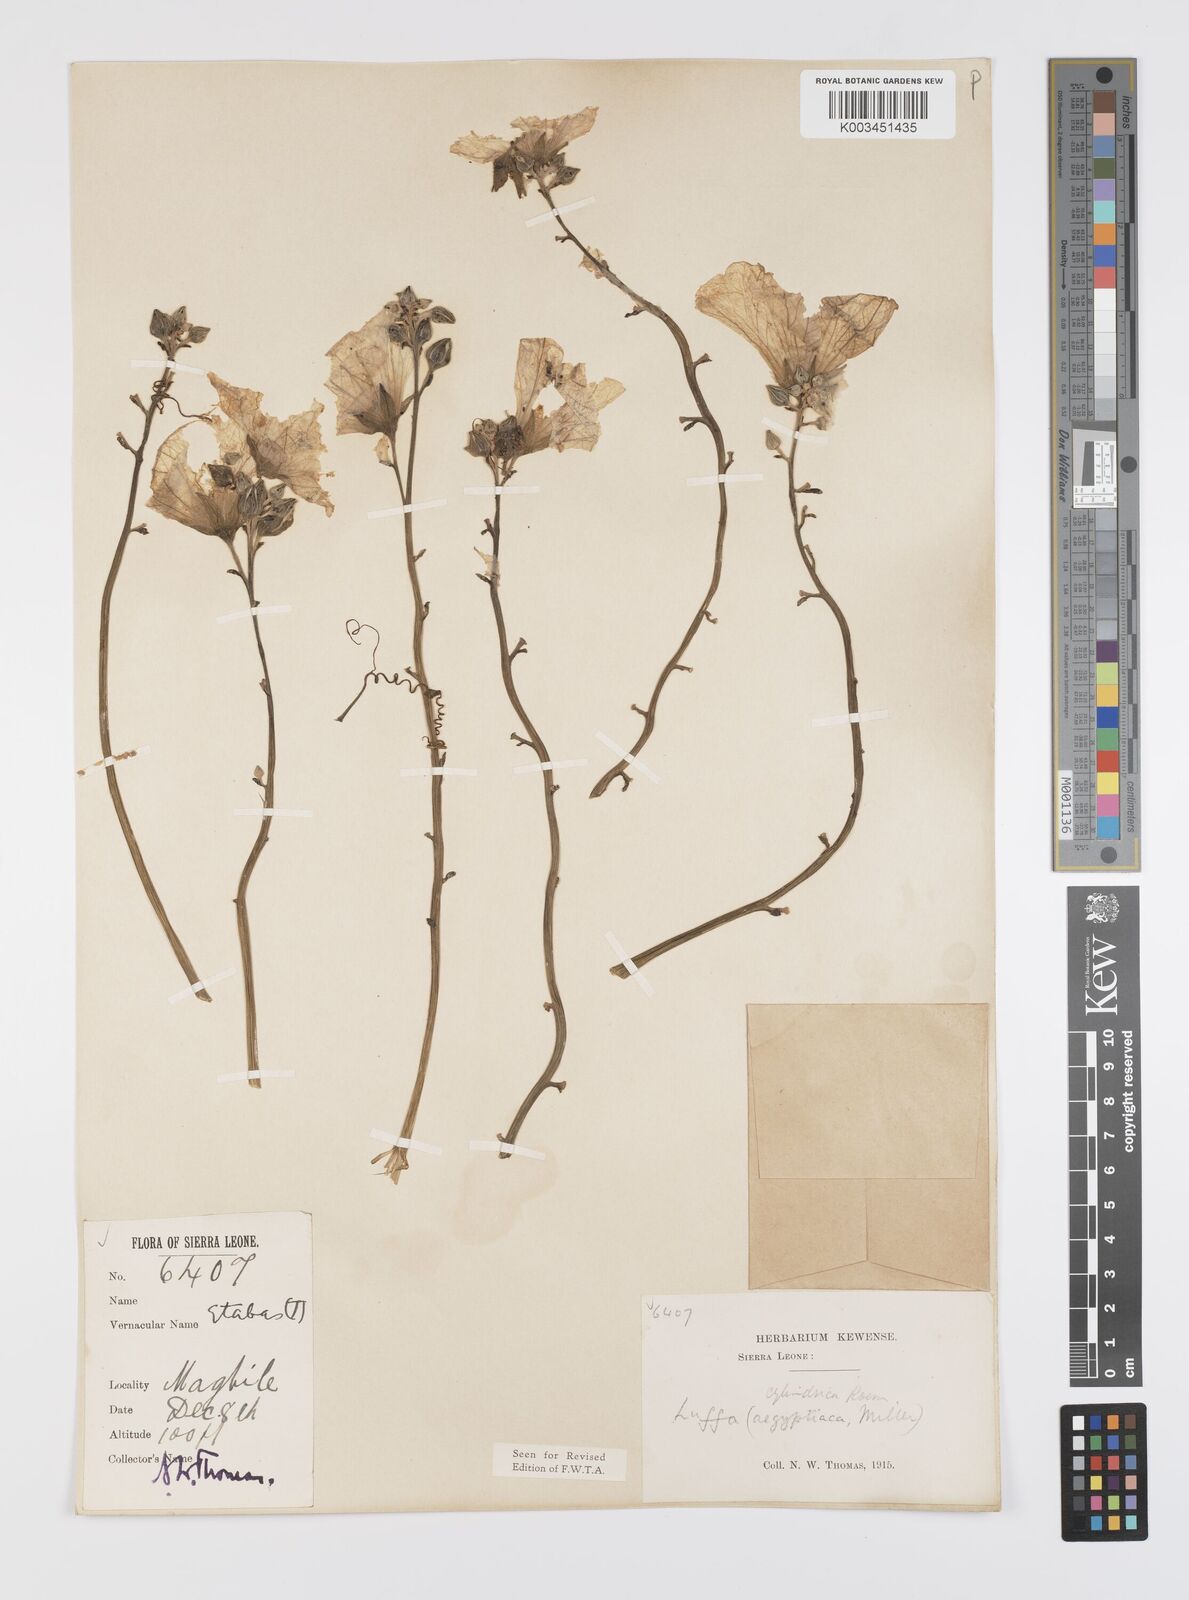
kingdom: Plantae
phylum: Tracheophyta
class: Magnoliopsida
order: Cucurbitales
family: Cucurbitaceae
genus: Luffa
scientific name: Luffa aegyptiaca
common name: Sponge gourd
